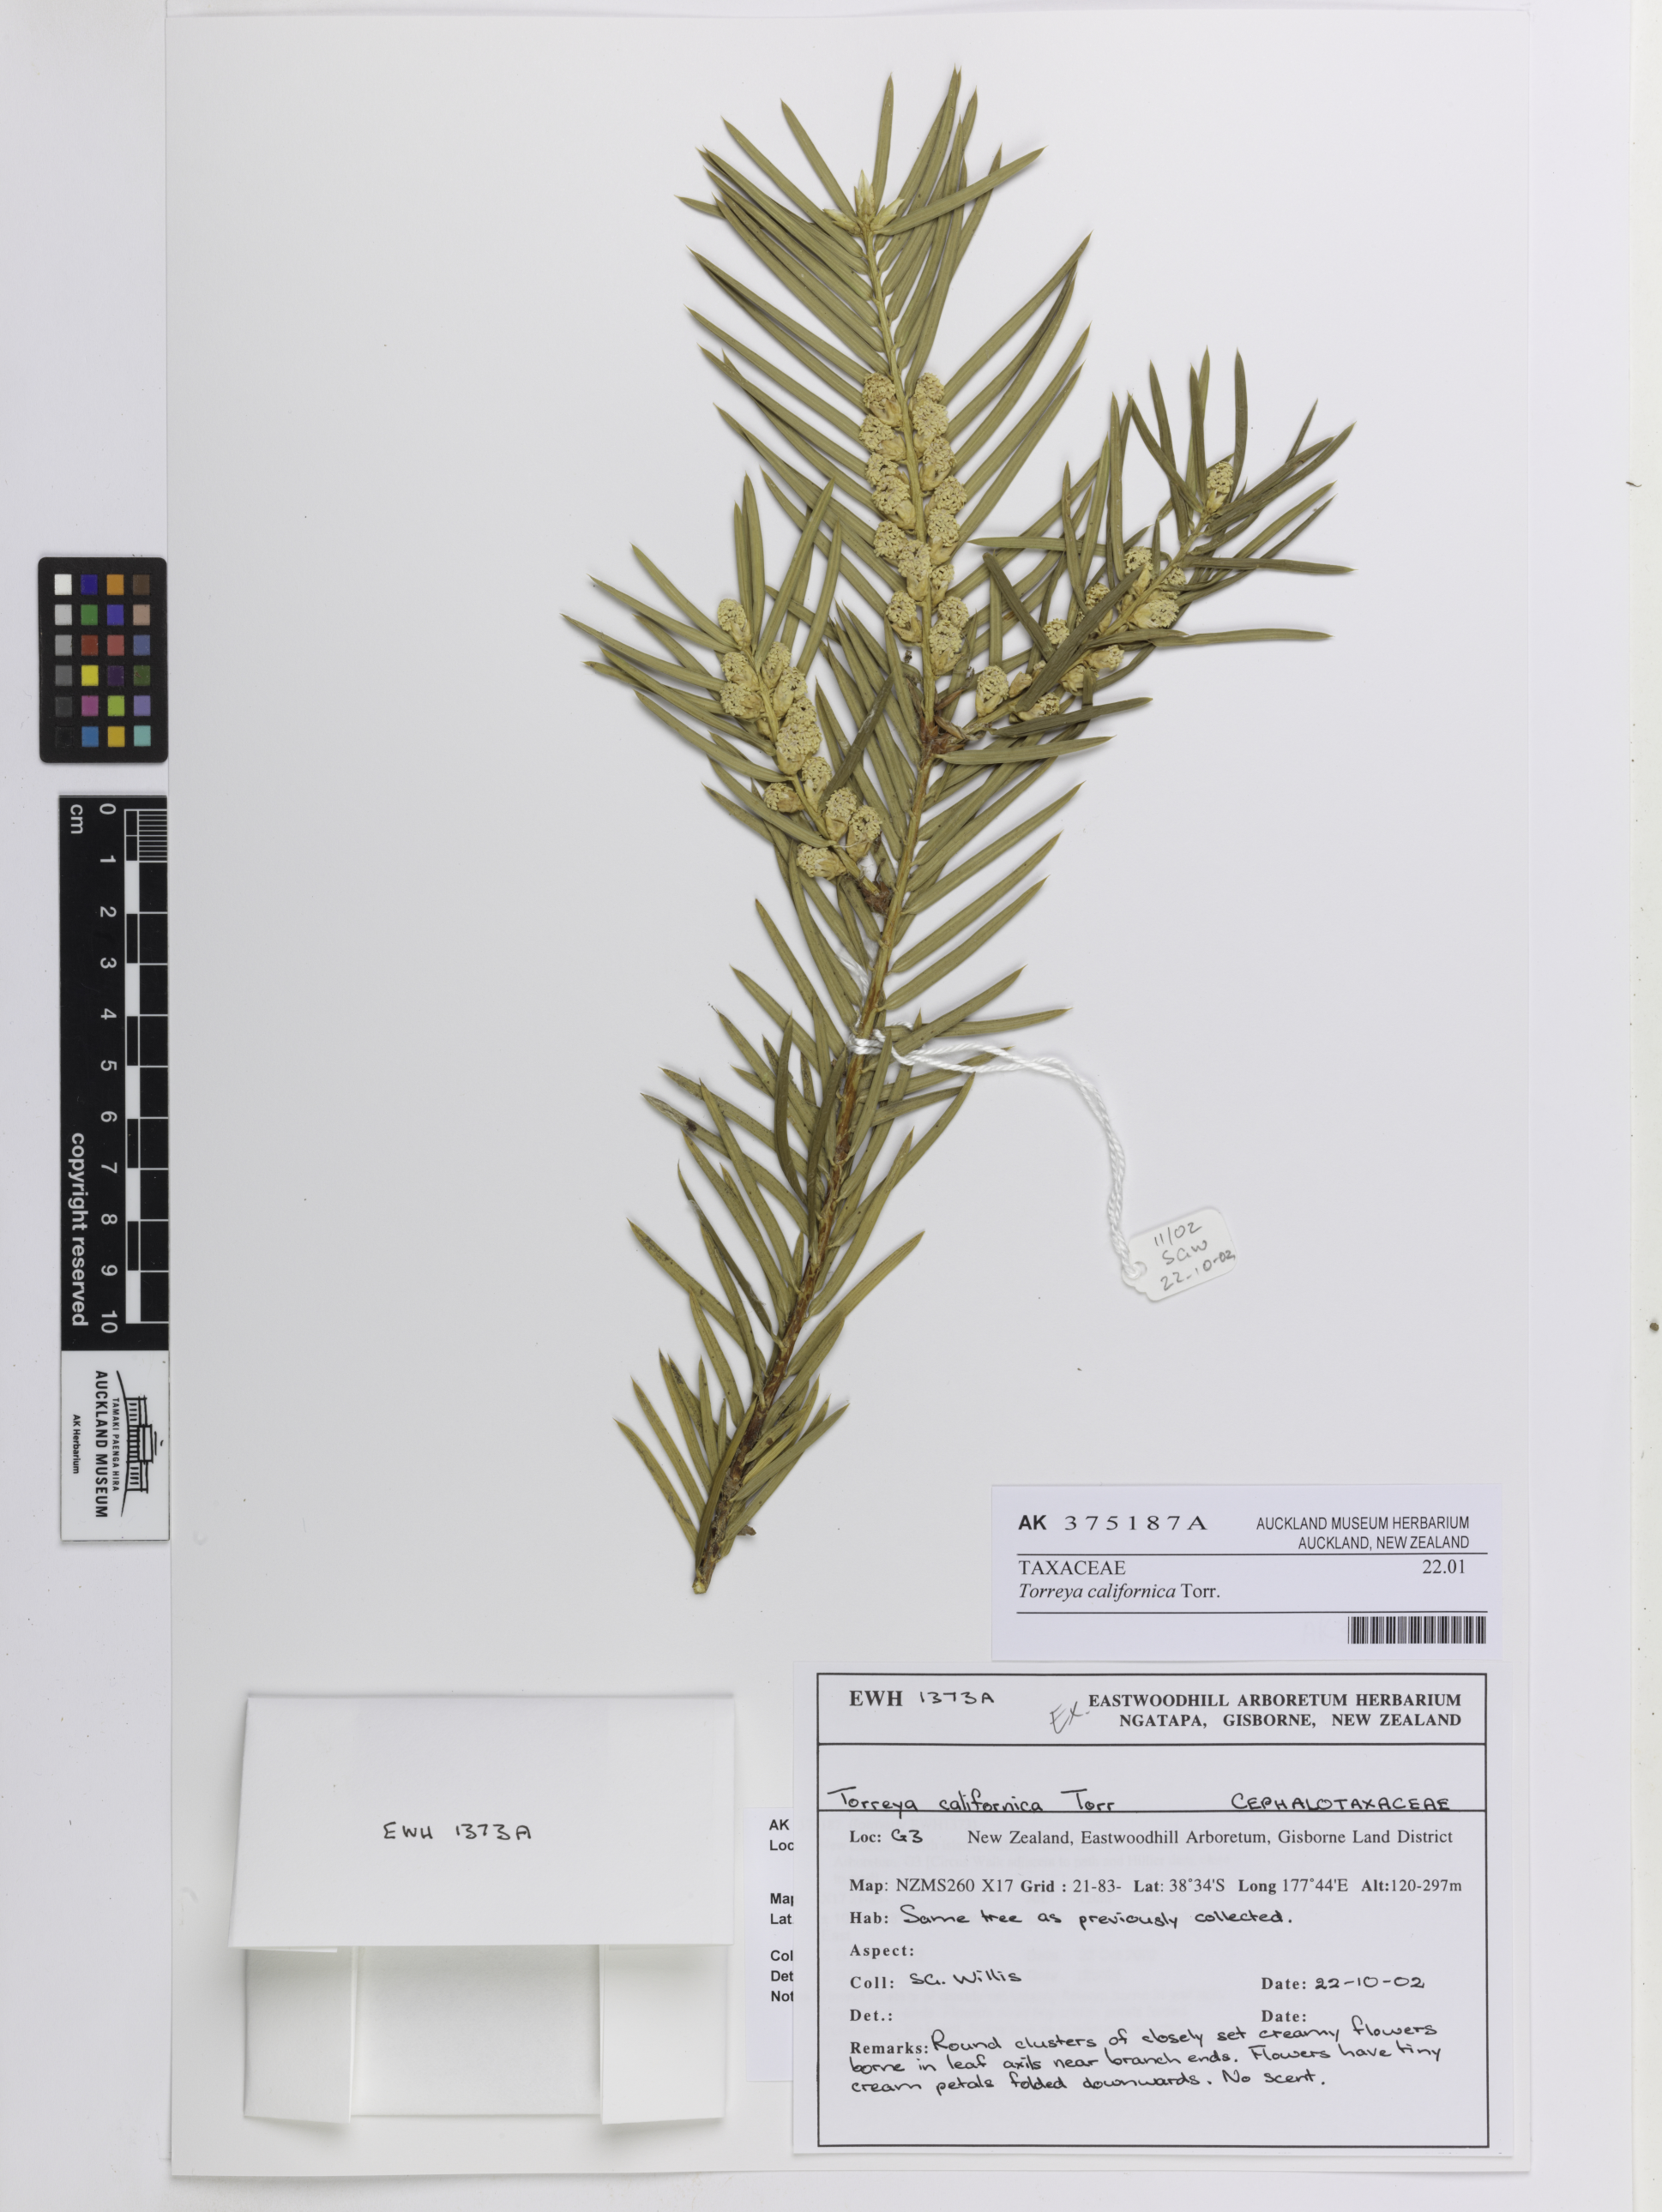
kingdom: Plantae
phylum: Tracheophyta
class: Pinopsida
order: Pinales
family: Taxaceae
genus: Torreya
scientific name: Torreya californica
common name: California torreya
